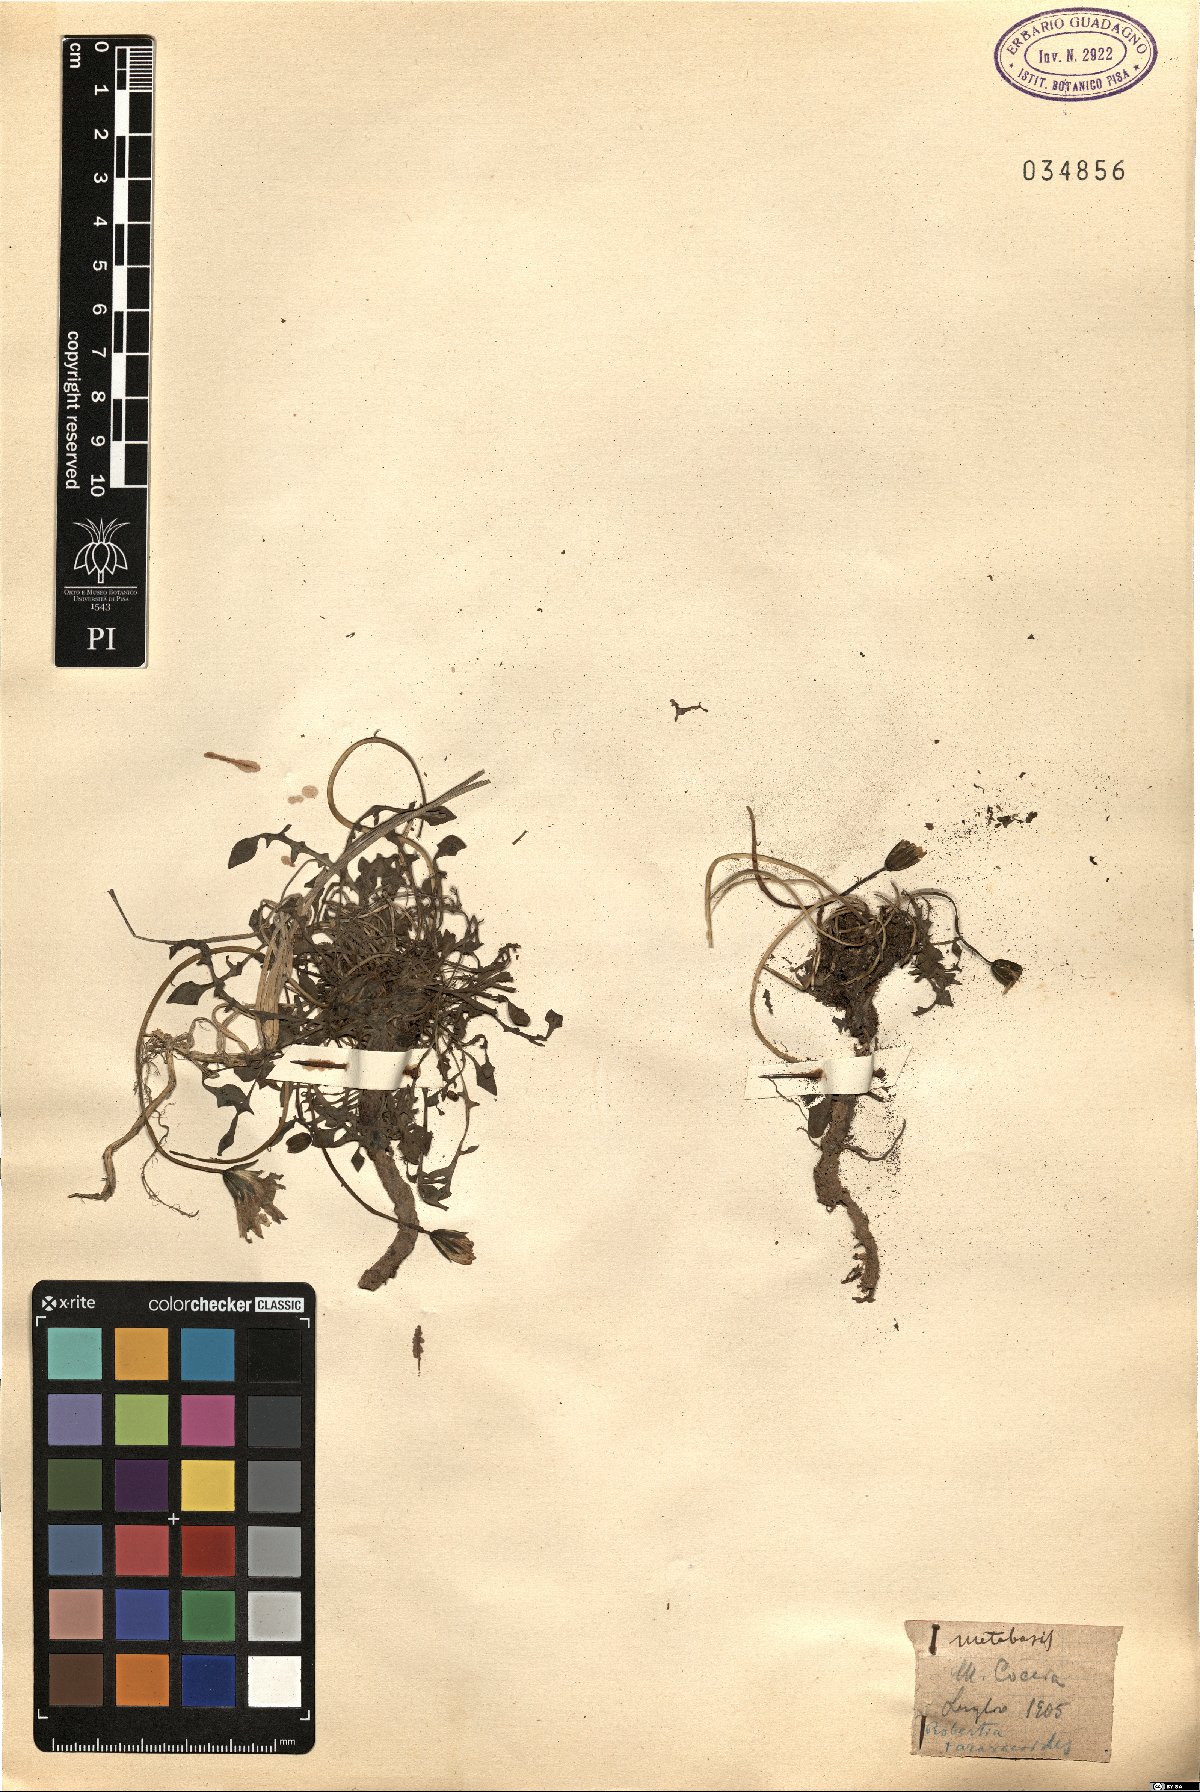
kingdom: Plantae
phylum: Tracheophyta
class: Magnoliopsida
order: Asterales
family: Asteraceae
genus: Hypochaeris
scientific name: Hypochaeris robertia
